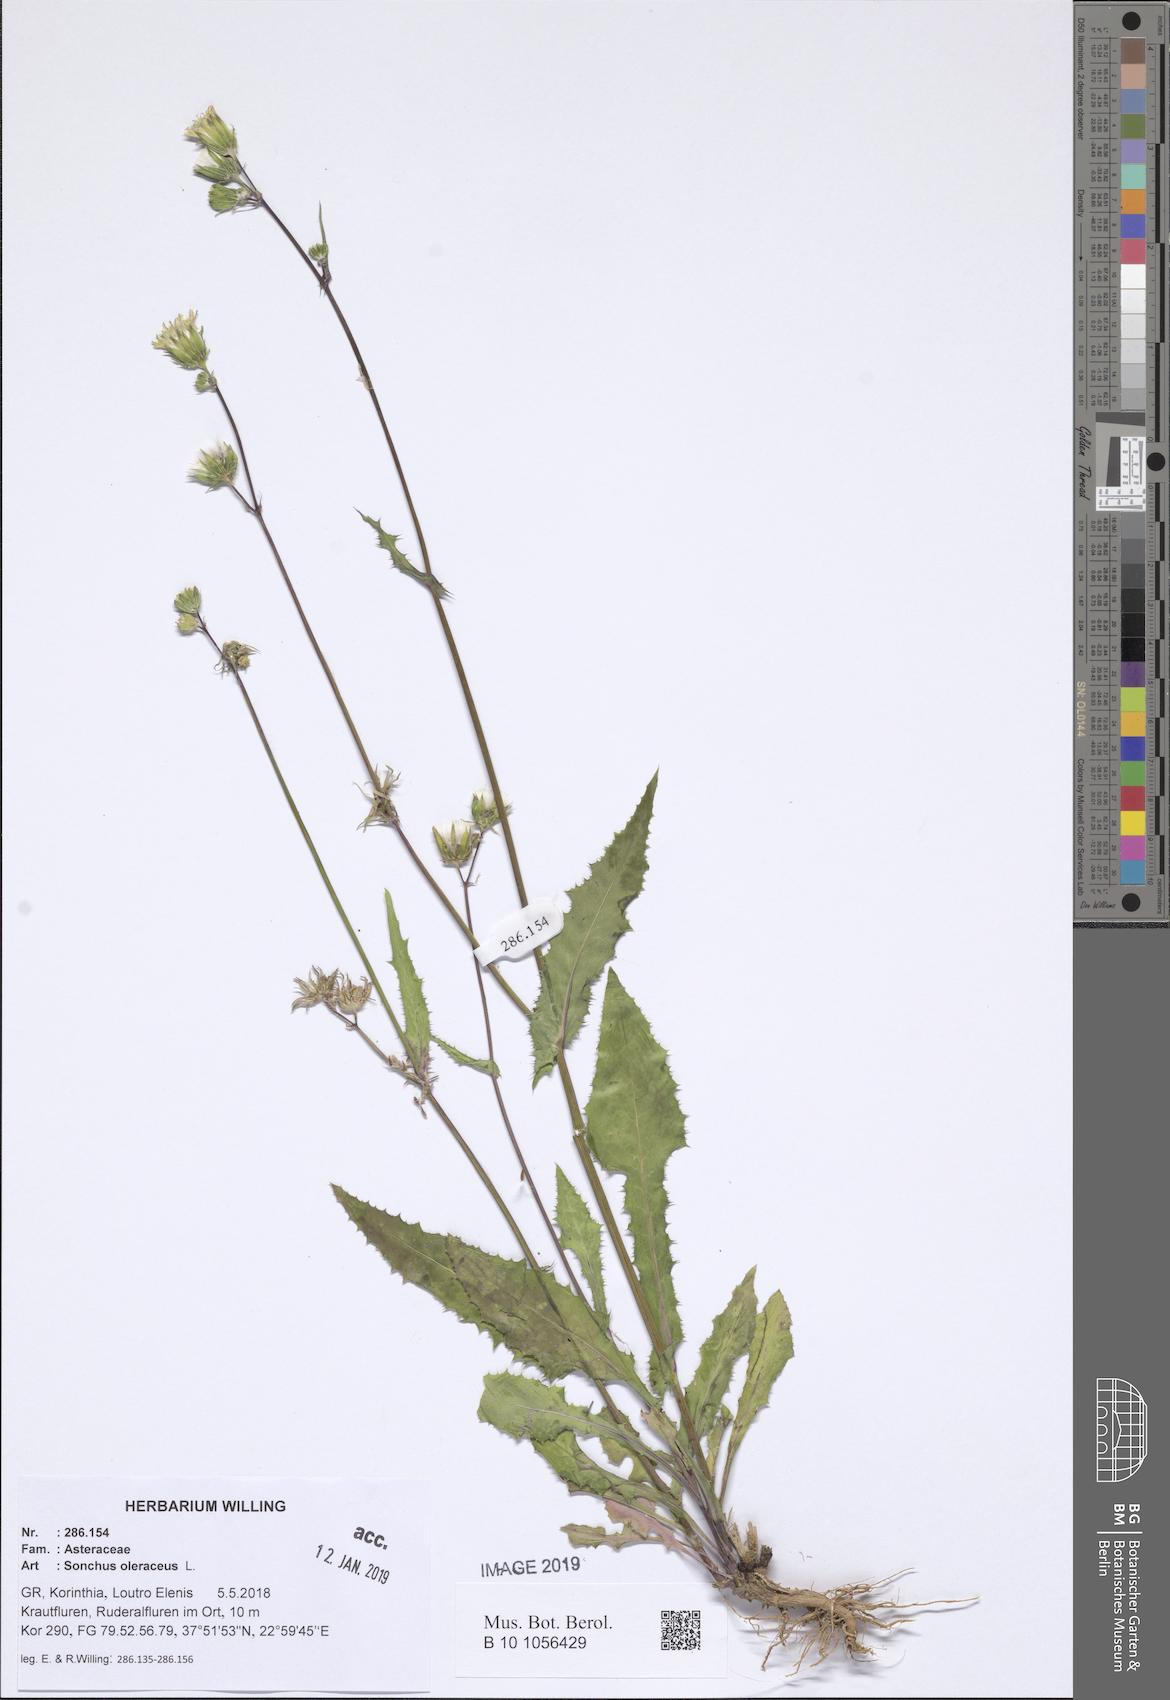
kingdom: Plantae
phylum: Tracheophyta
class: Magnoliopsida
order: Asterales
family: Asteraceae
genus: Sonchus
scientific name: Sonchus oleraceus
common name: Common sowthistle
